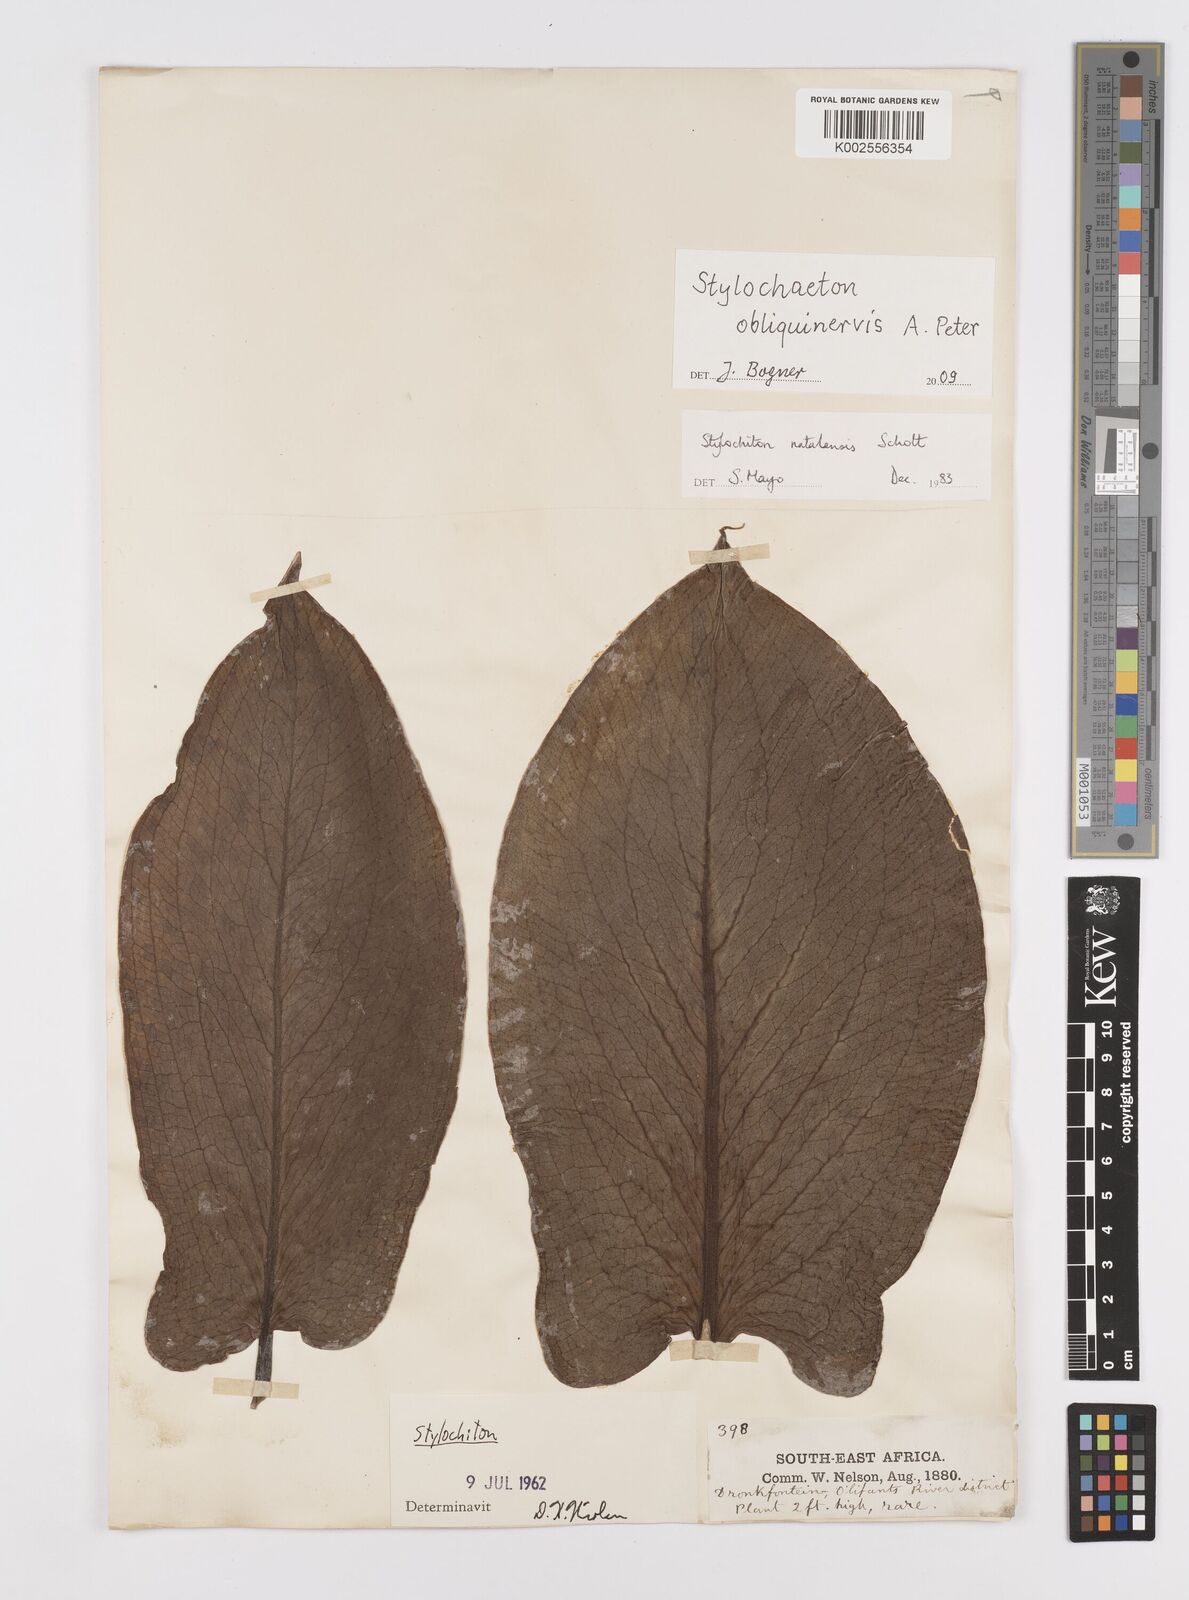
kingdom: Plantae
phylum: Tracheophyta
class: Liliopsida
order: Alismatales
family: Araceae
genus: Stylochaeton
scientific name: Stylochaeton natalense
